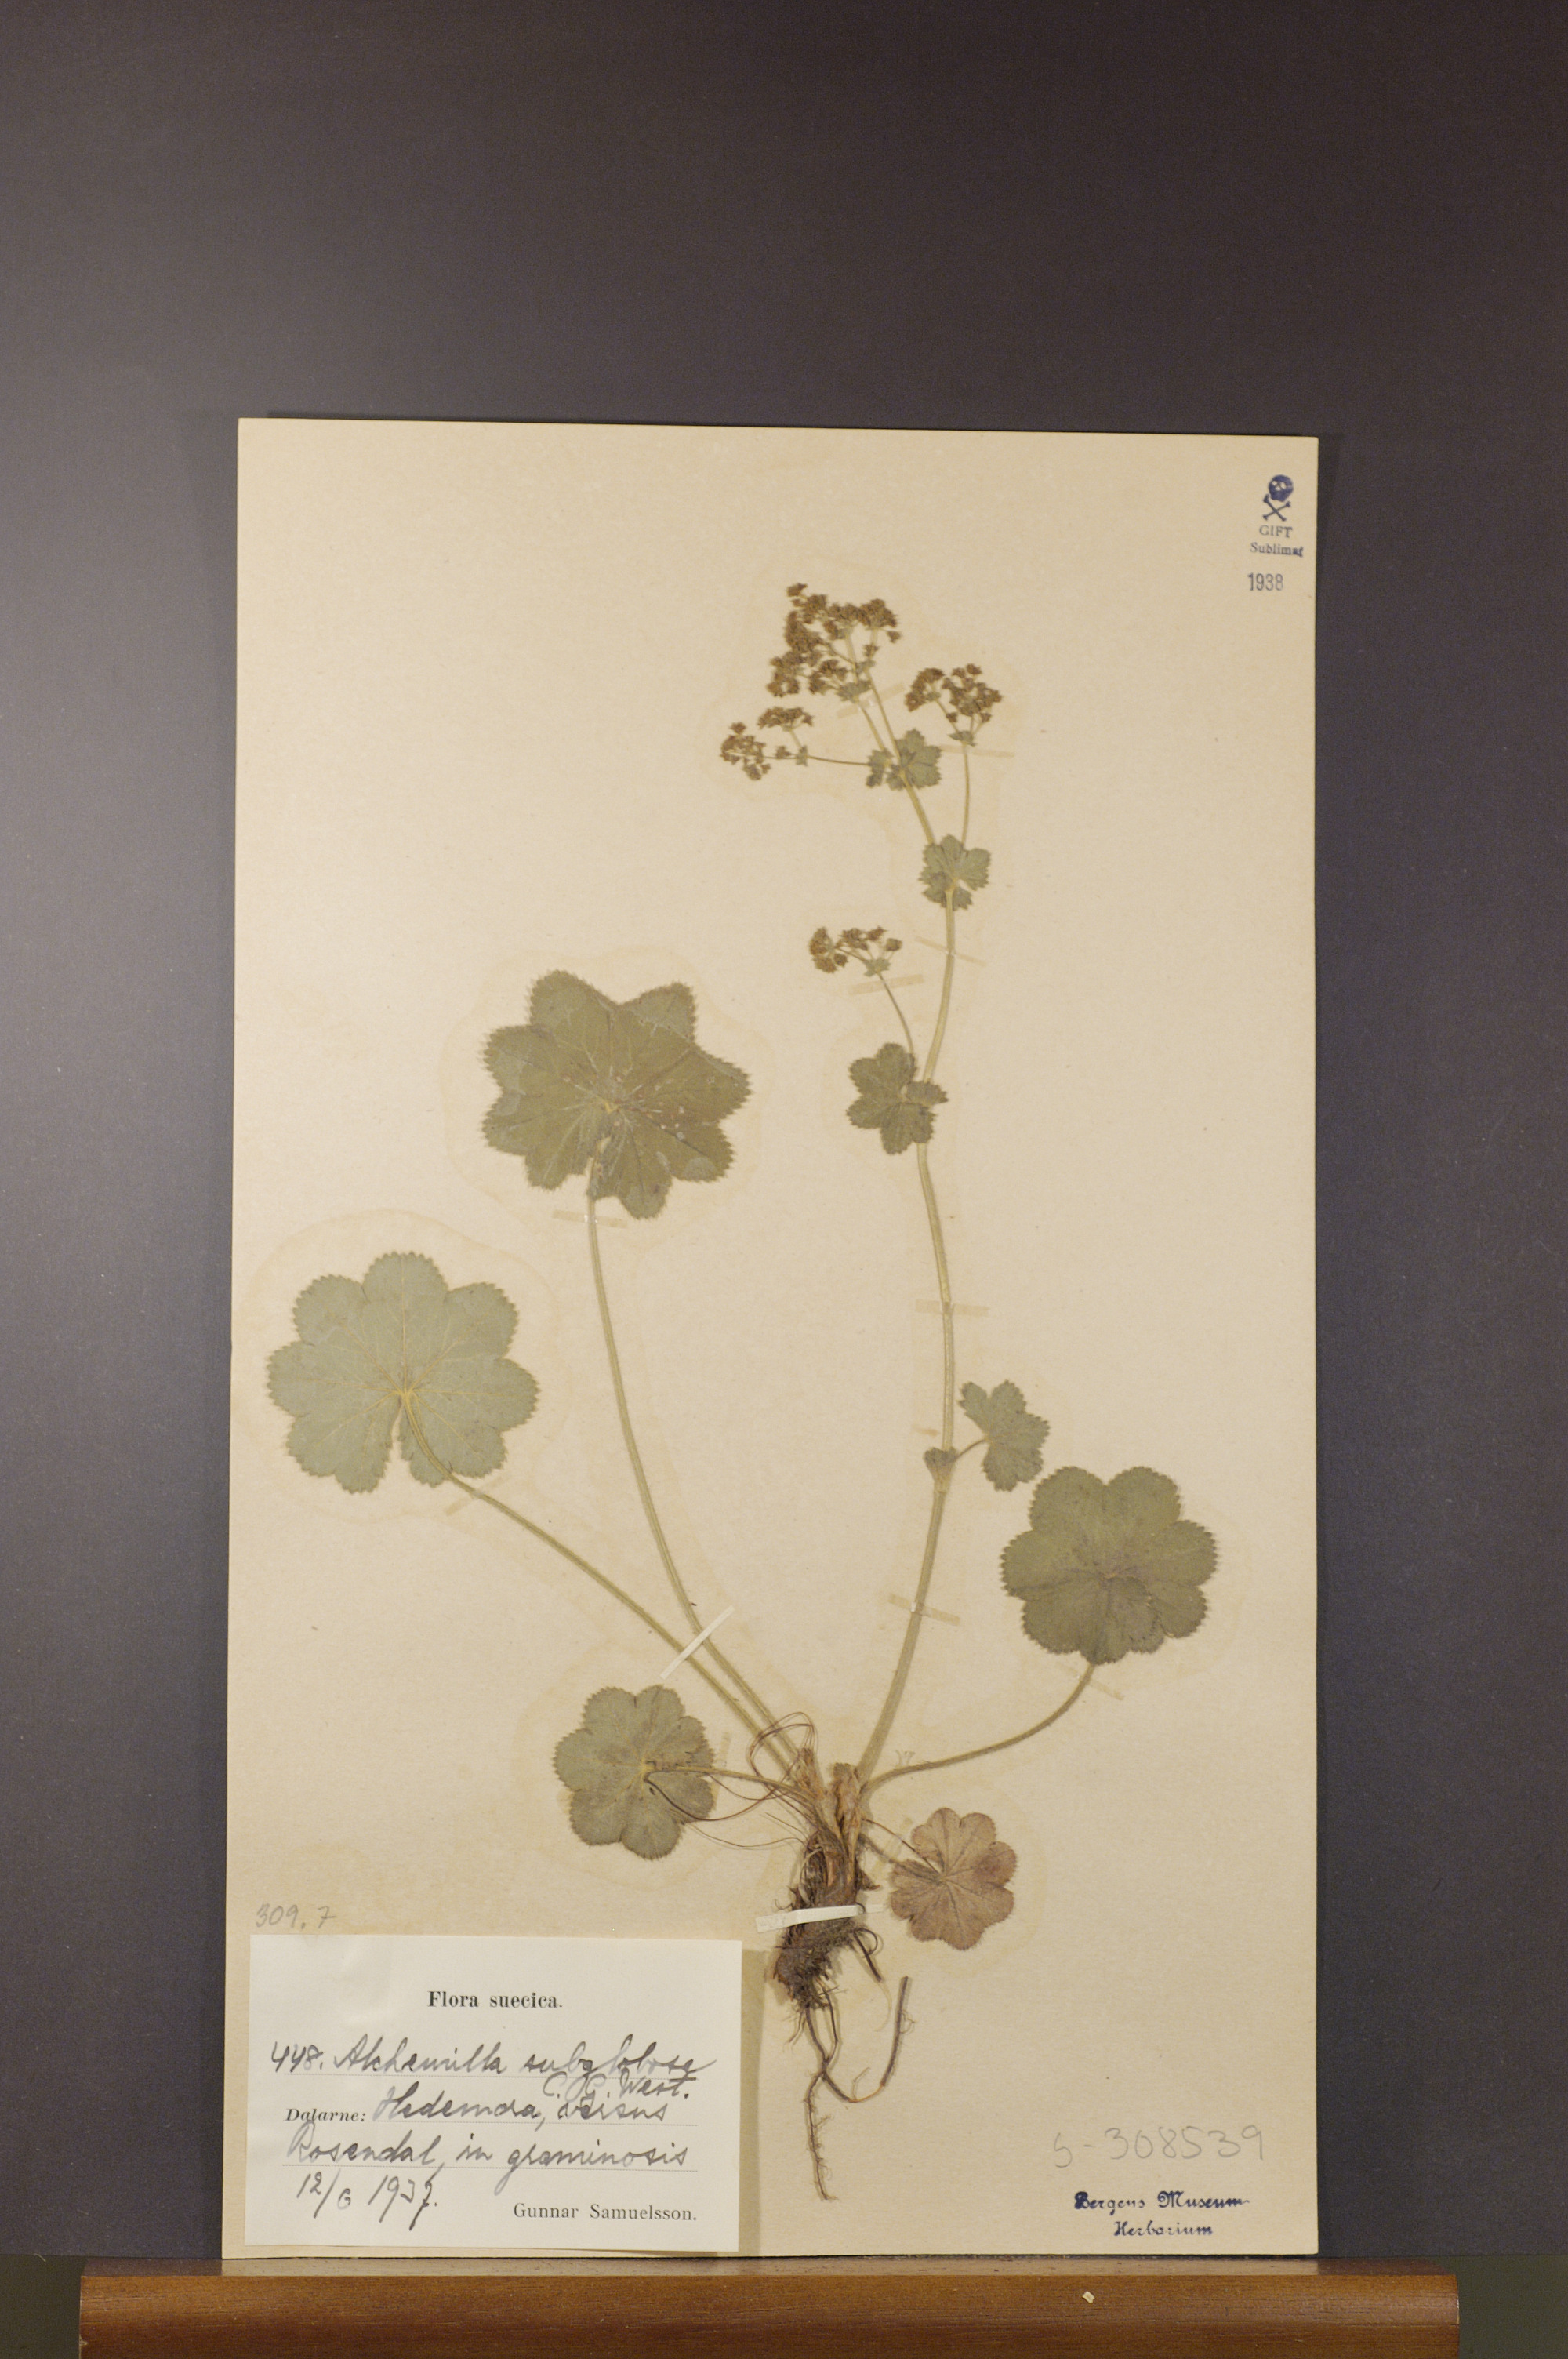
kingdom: Plantae
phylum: Tracheophyta
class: Magnoliopsida
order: Rosales
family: Rosaceae
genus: Alchemilla
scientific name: Alchemilla subglobosa
